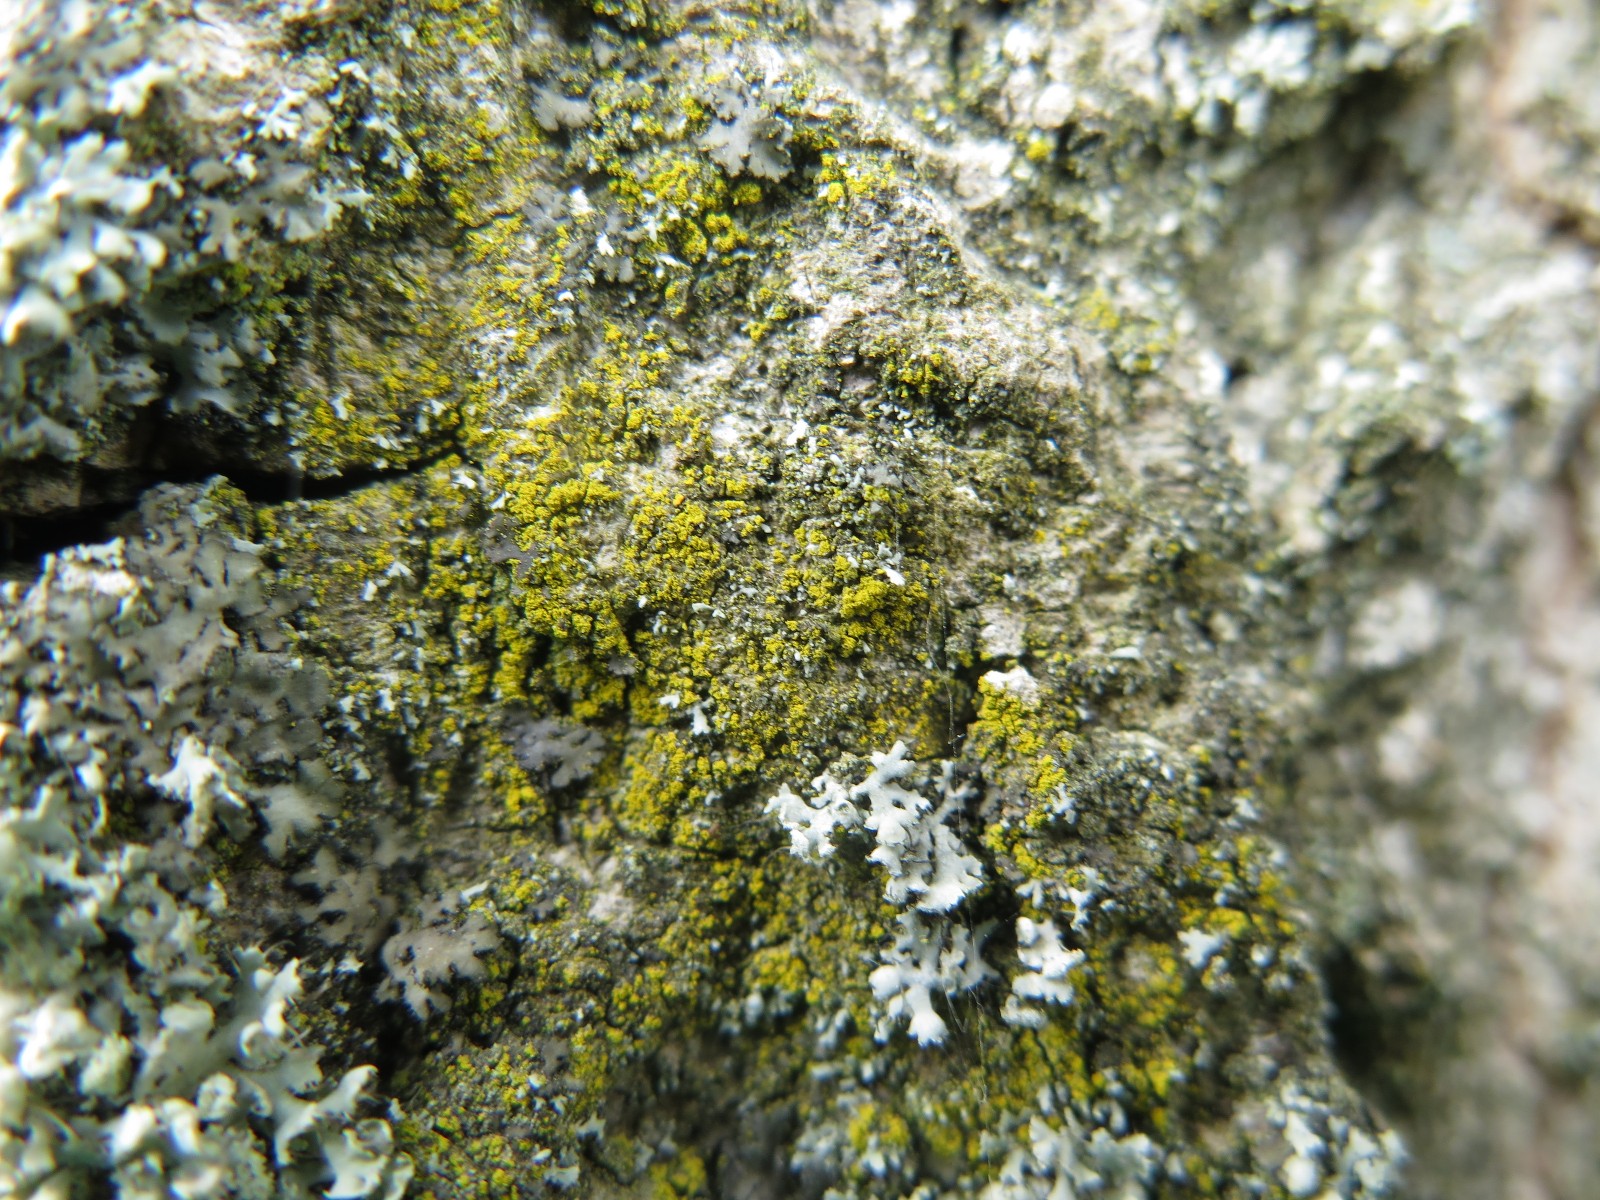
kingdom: Fungi
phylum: Ascomycota
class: Candelariomycetes
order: Candelariales
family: Candelariaceae
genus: Candelariella
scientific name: Candelariella reflexa
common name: grynskællet æggeblommelav
